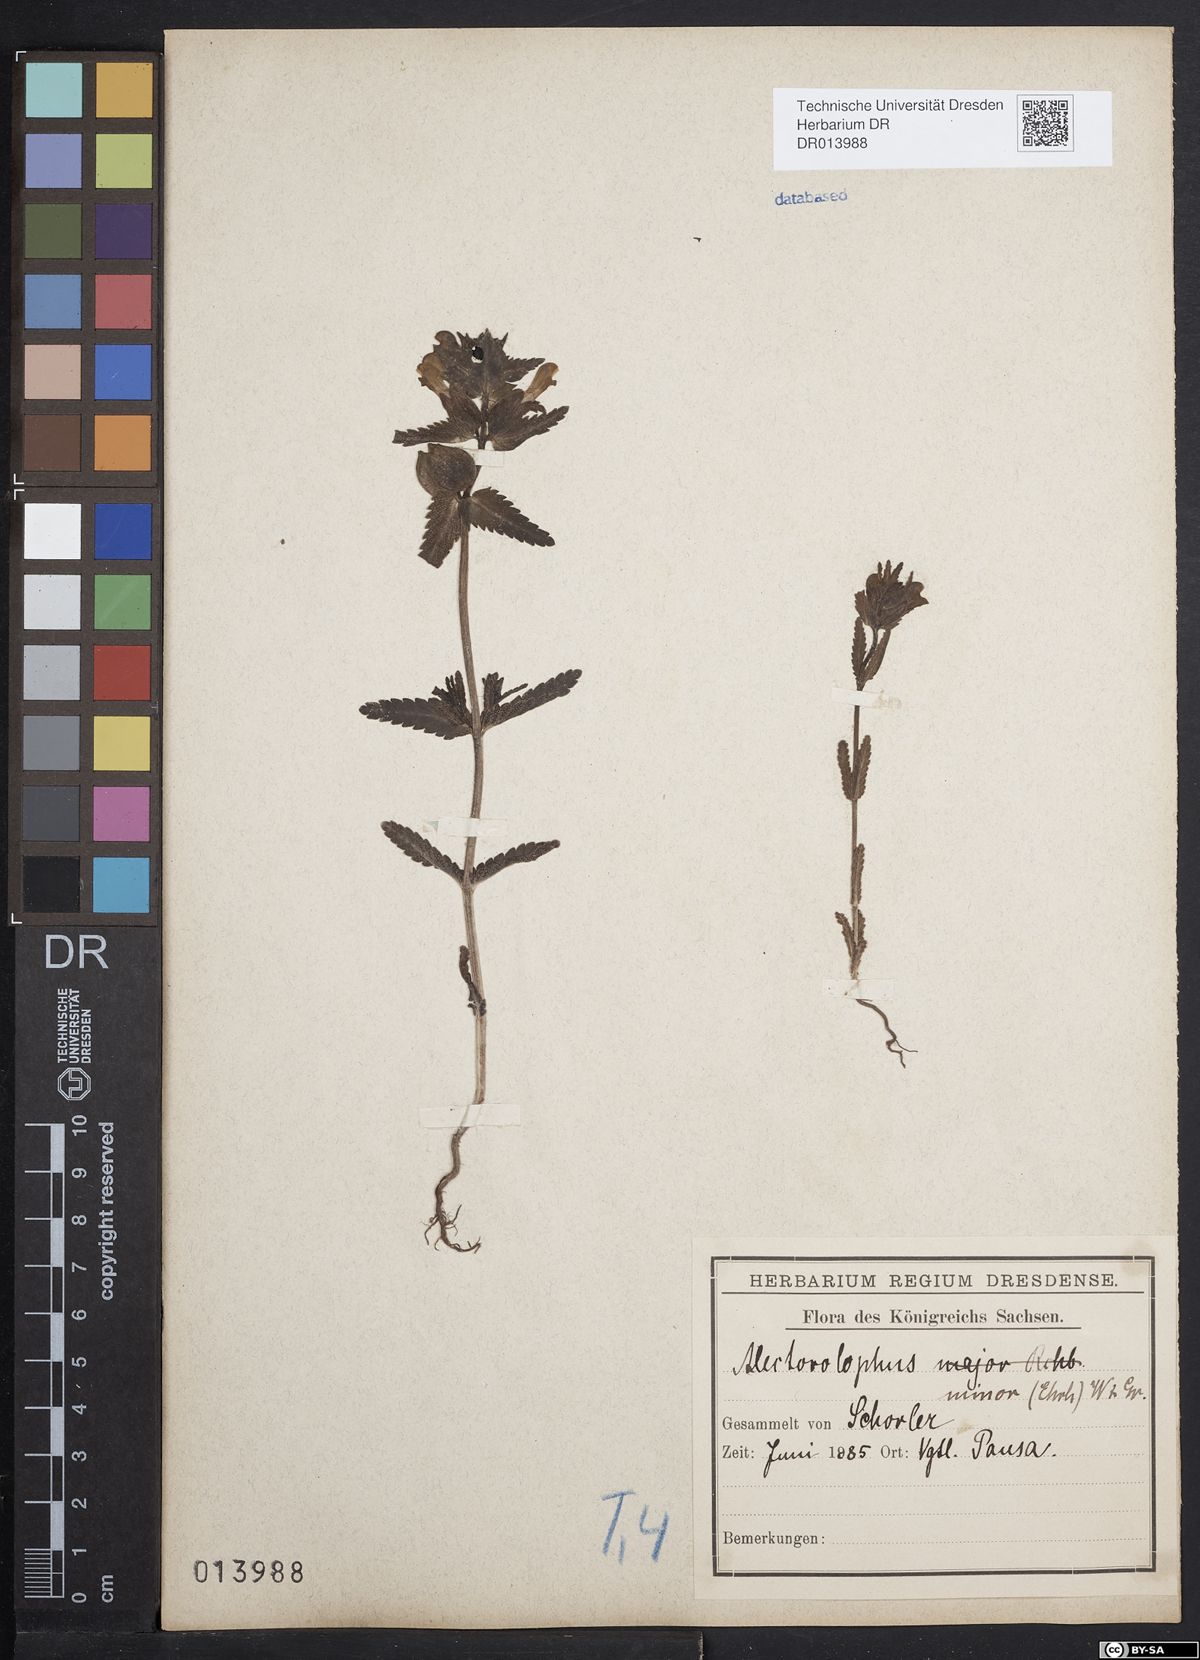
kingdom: Plantae
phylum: Tracheophyta
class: Magnoliopsida
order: Lamiales
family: Orobanchaceae
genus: Rhinanthus
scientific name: Rhinanthus minor
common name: Yellow-rattle
